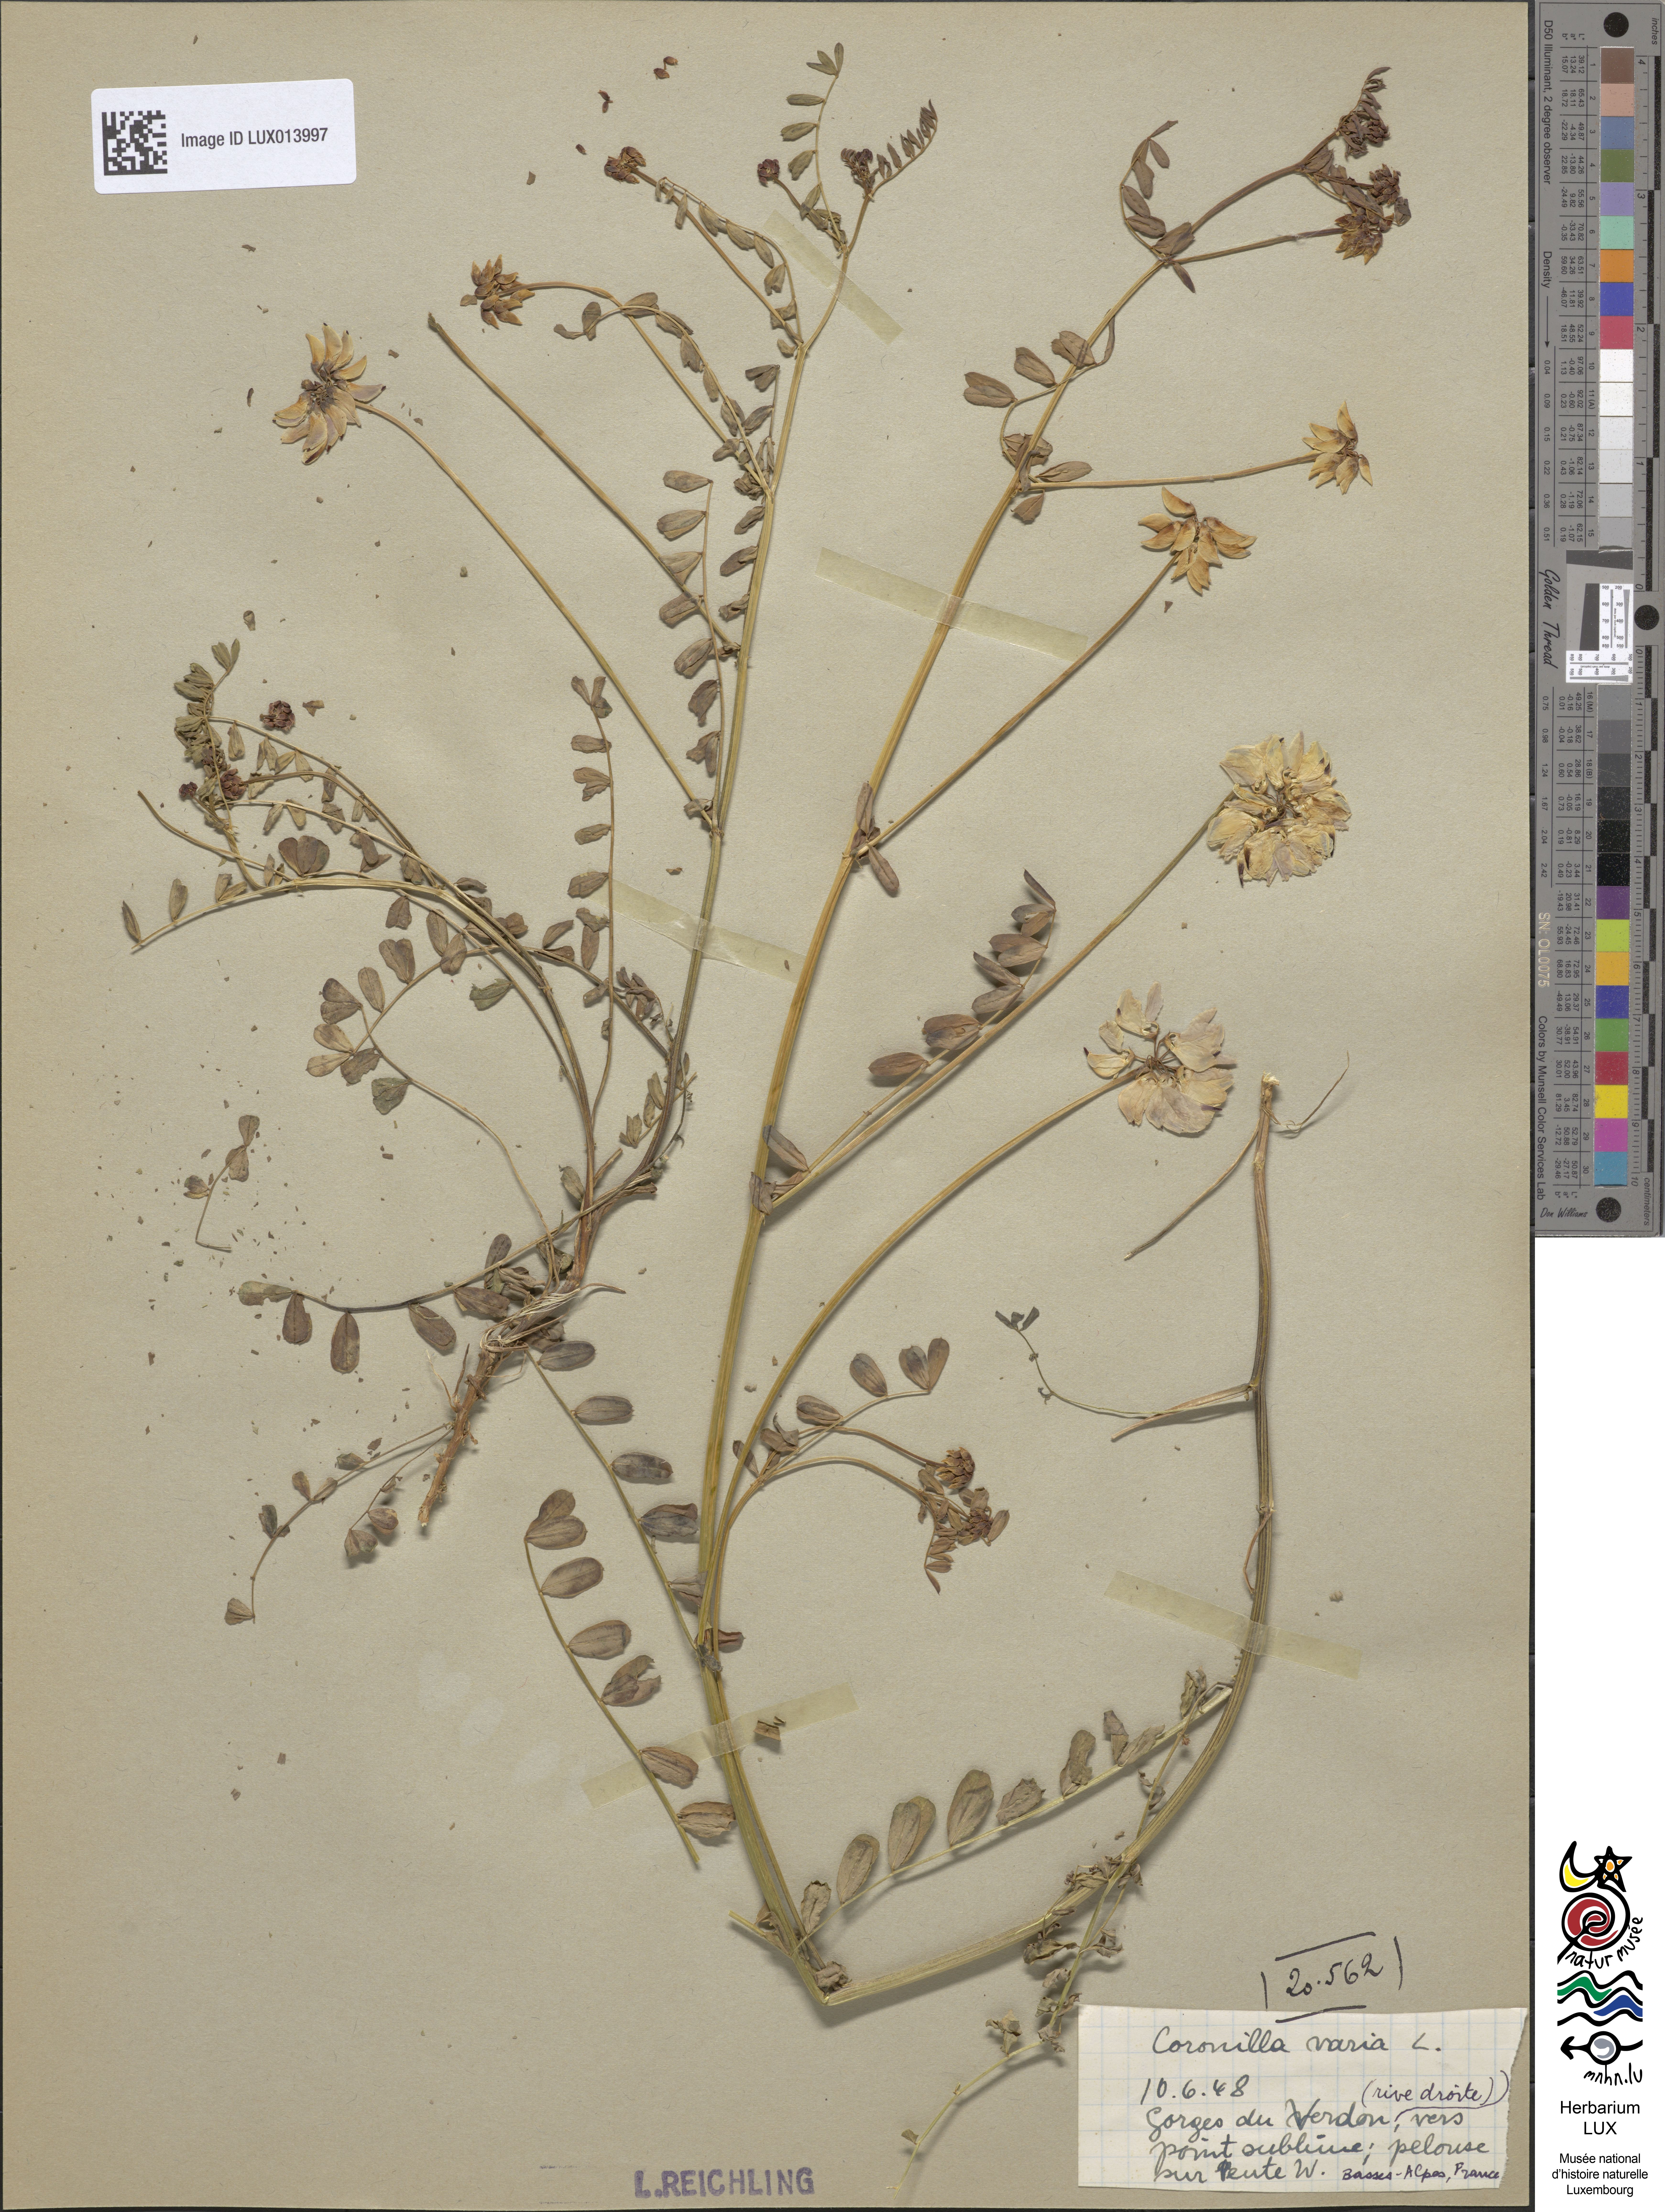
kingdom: Plantae
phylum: Tracheophyta
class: Magnoliopsida
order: Fabales
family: Fabaceae
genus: Coronilla
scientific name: Coronilla varia
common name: Crownvetch
